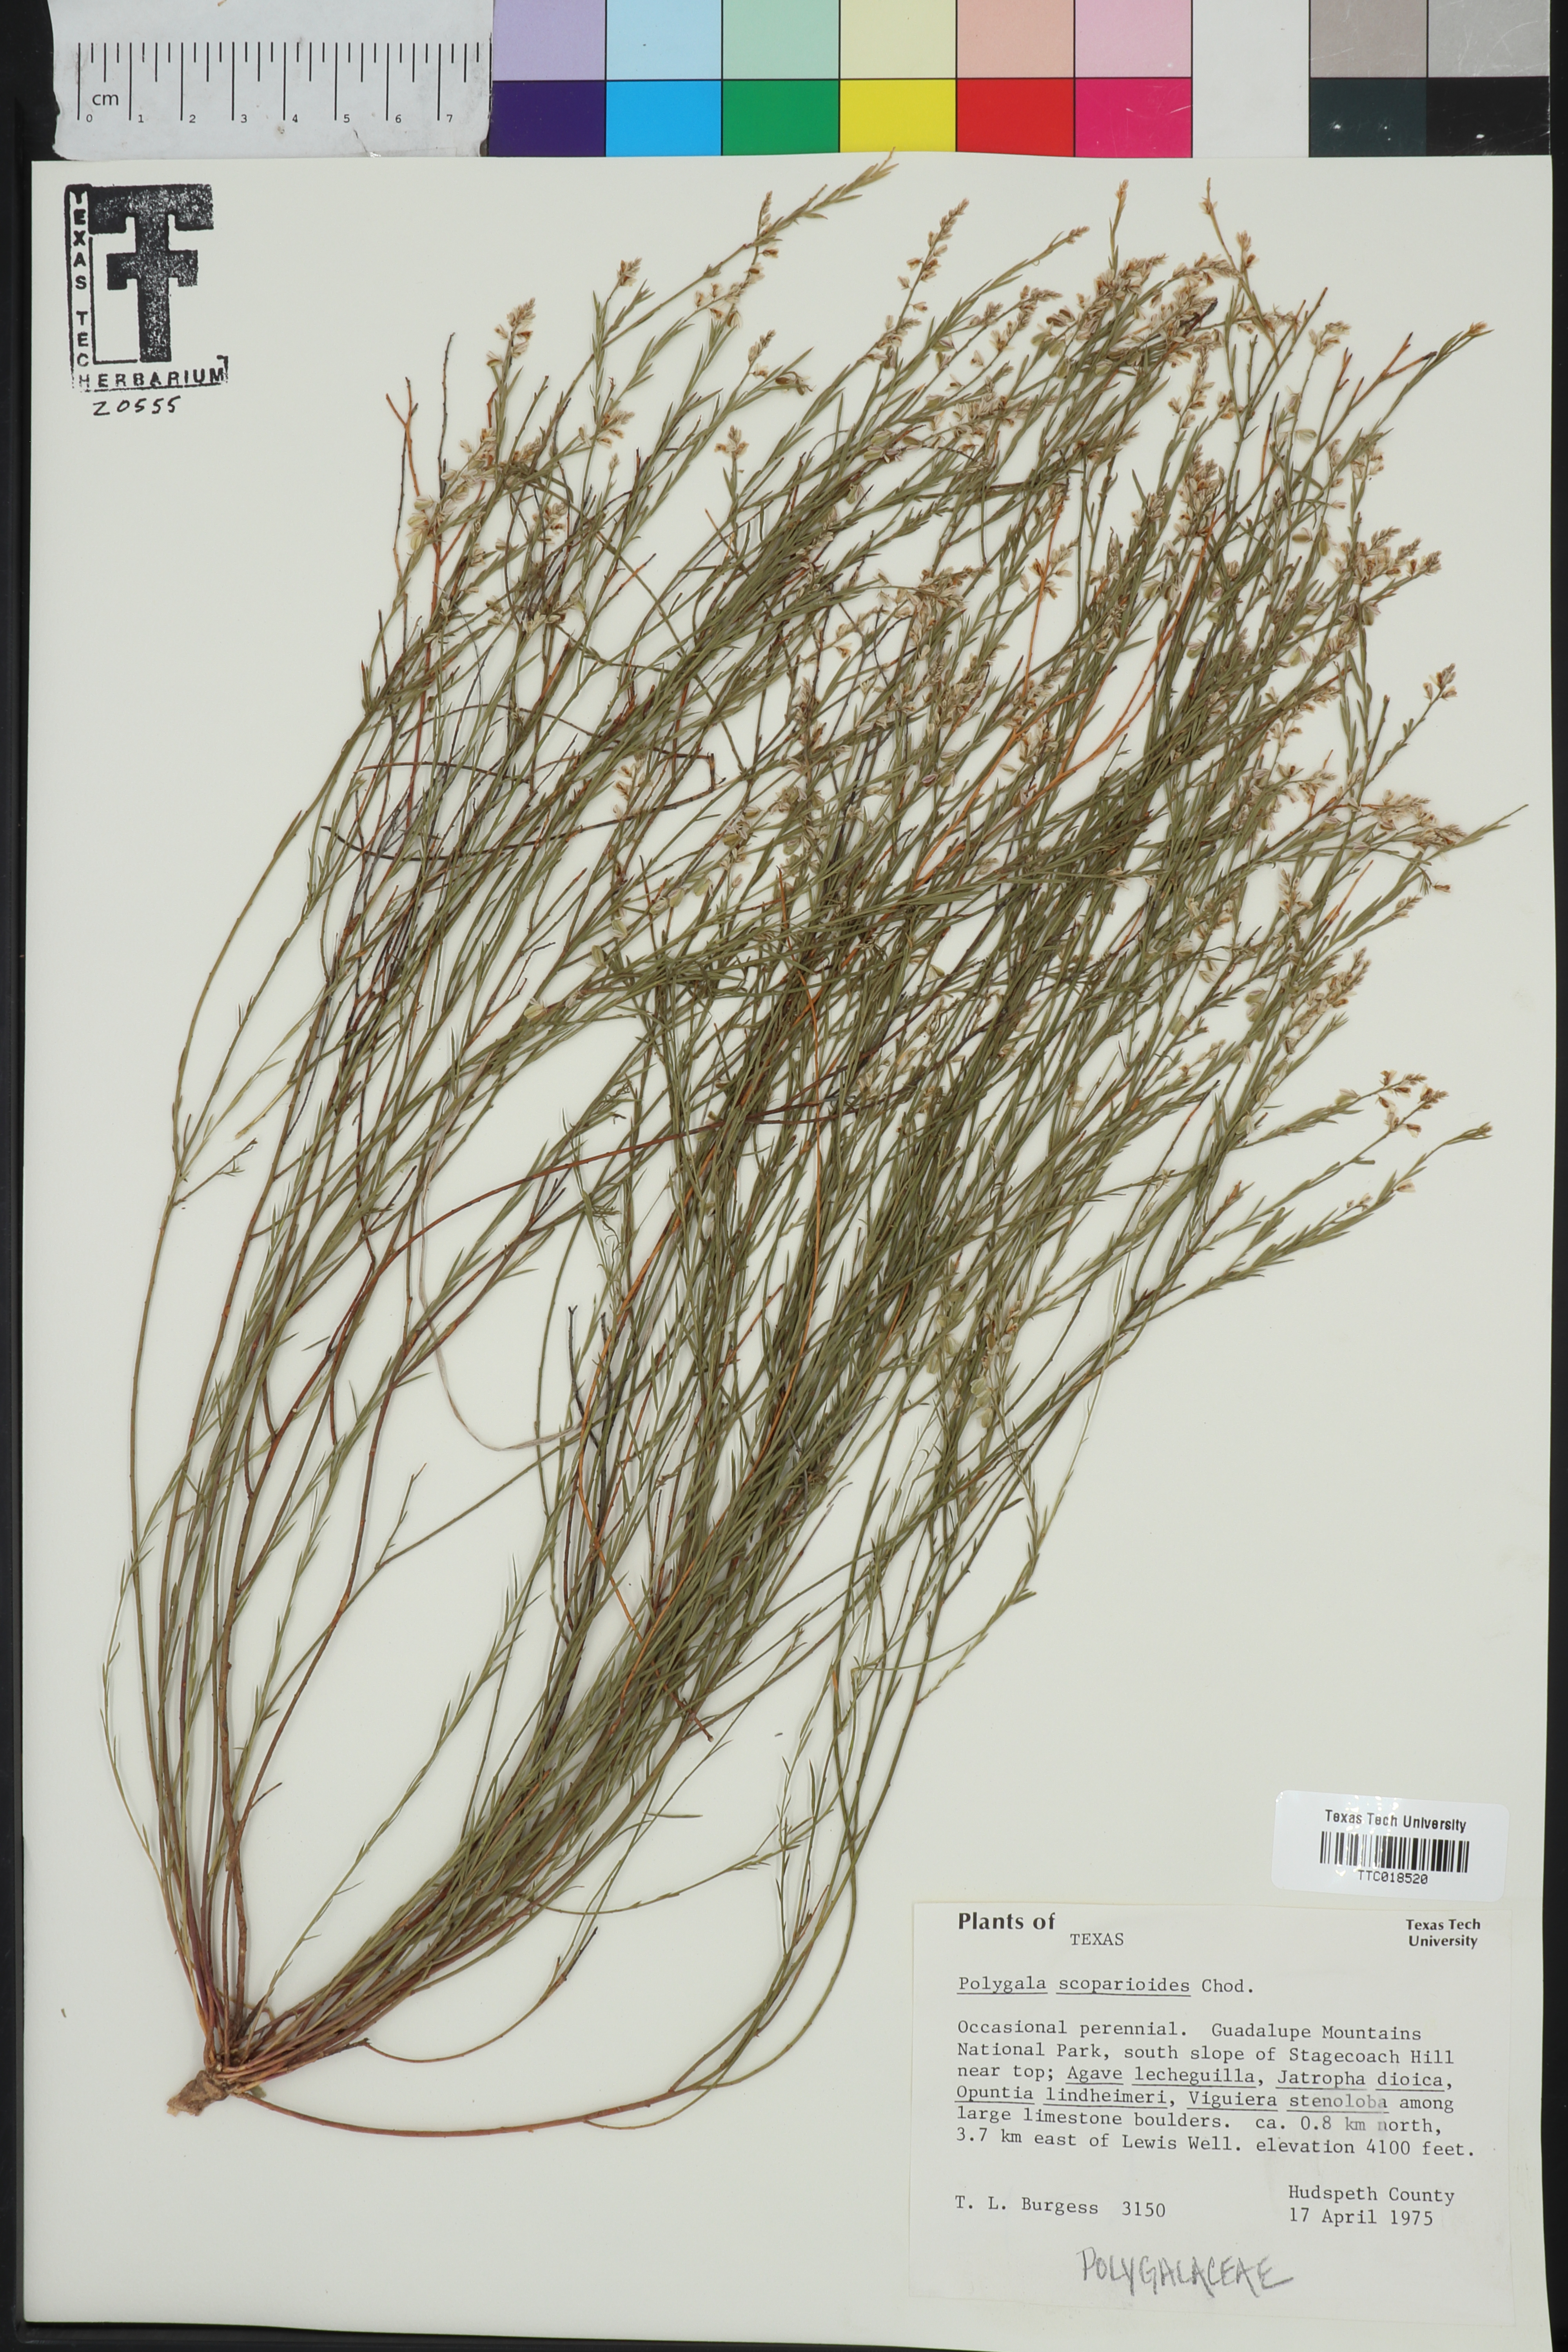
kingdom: Plantae
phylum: Tracheophyta
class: Magnoliopsida
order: Fabales
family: Polygalaceae
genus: Polygala
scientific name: Polygala scoparioides
